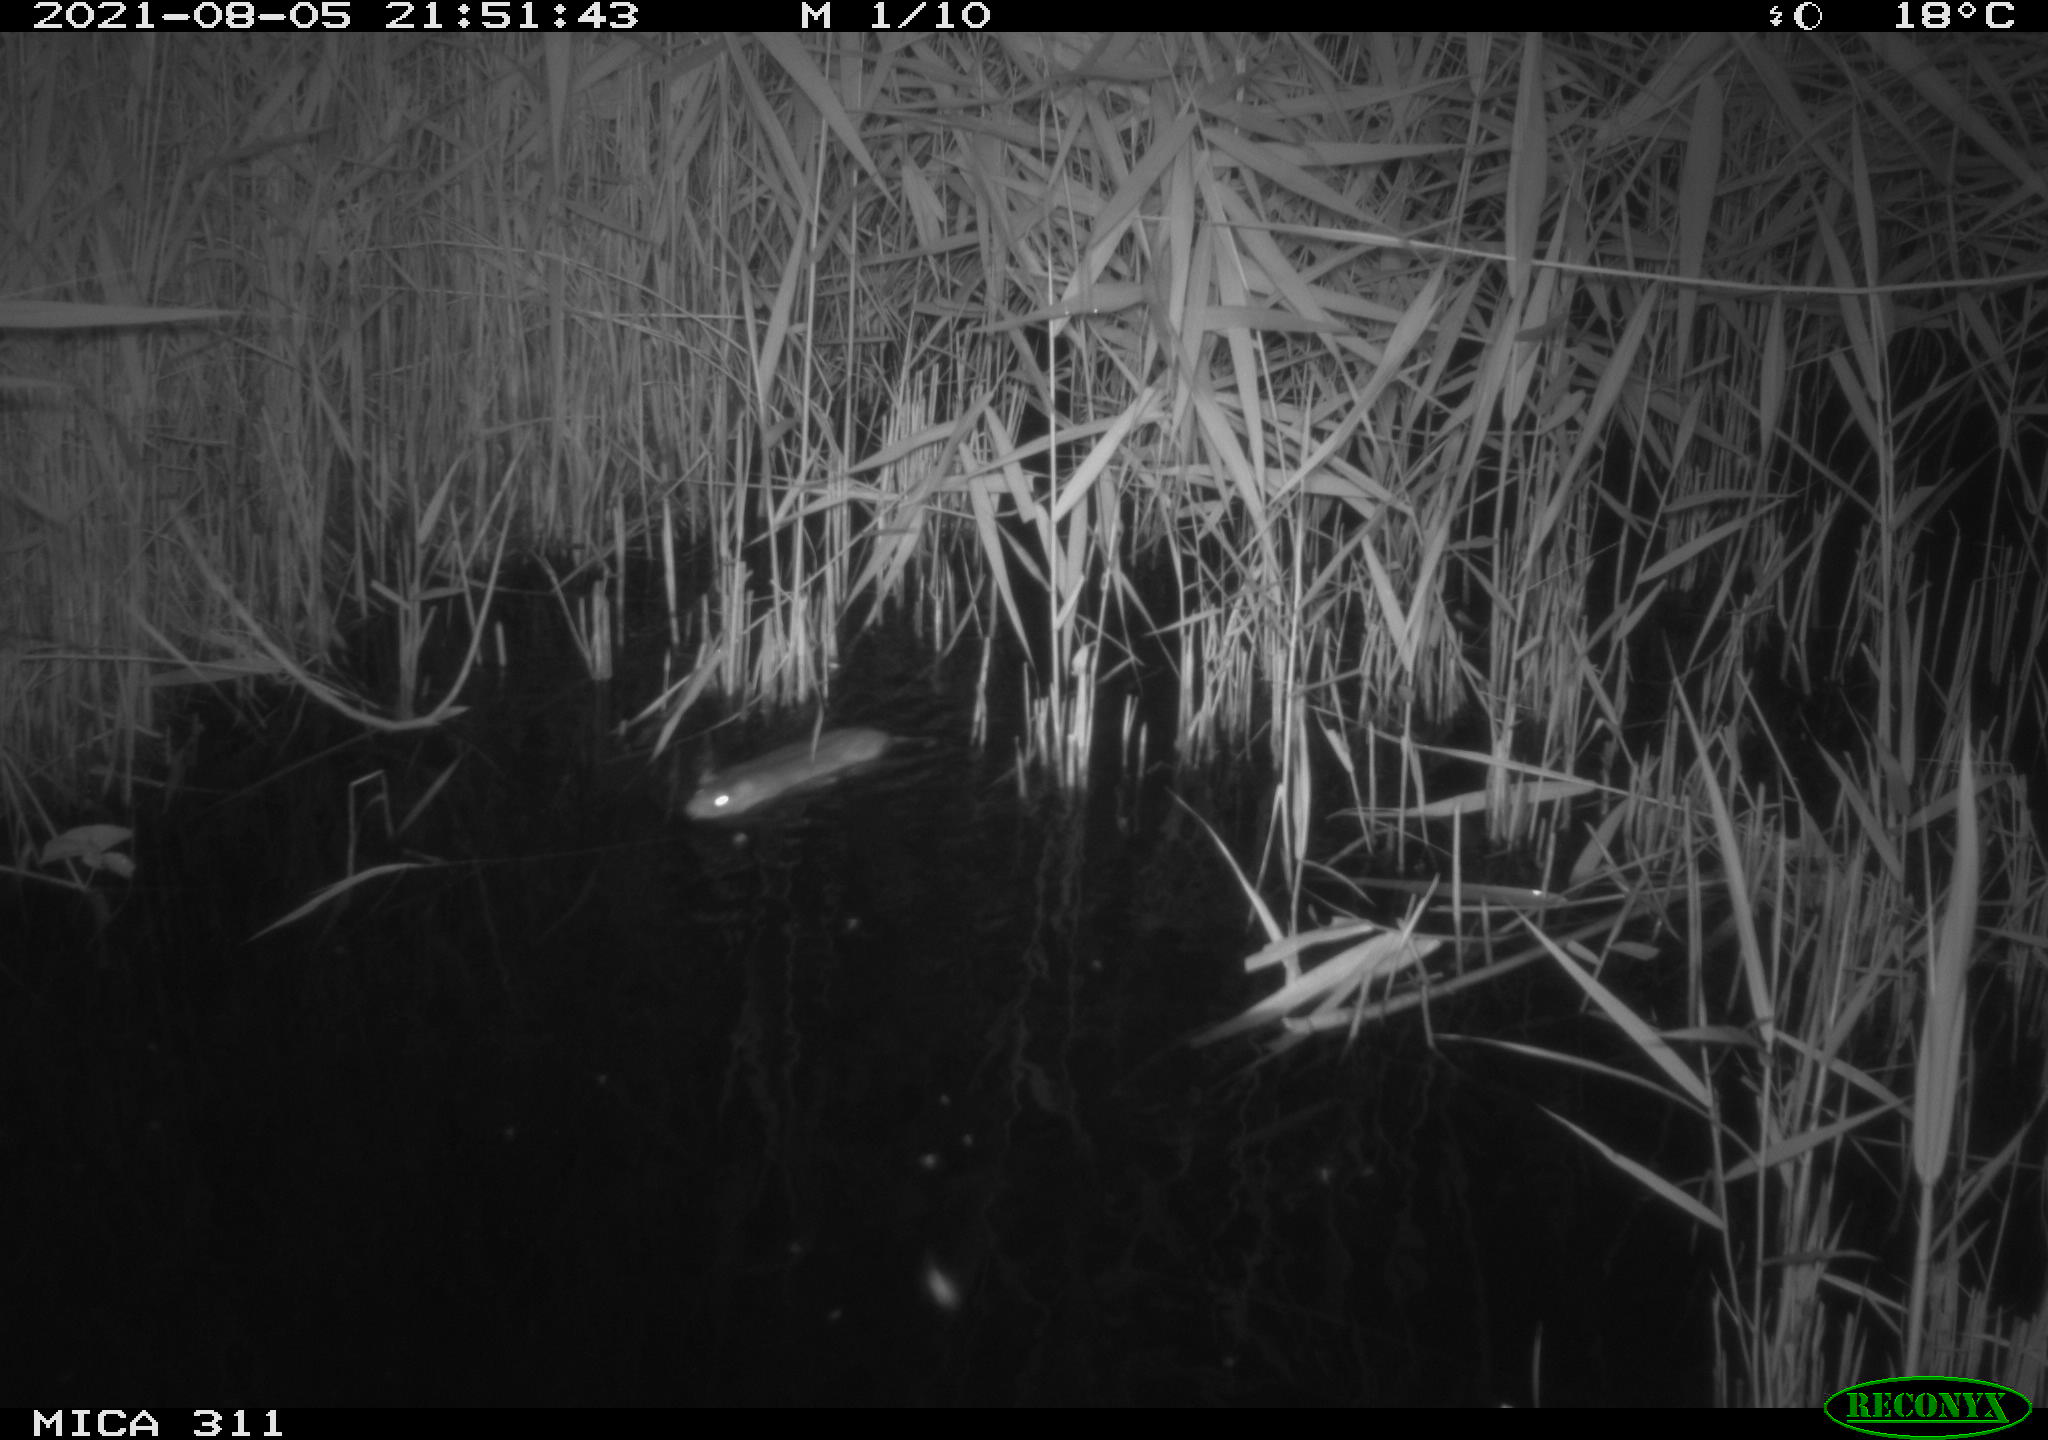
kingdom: Animalia
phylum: Chordata
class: Mammalia
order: Rodentia
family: Muridae
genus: Rattus
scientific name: Rattus norvegicus
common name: Brown rat
